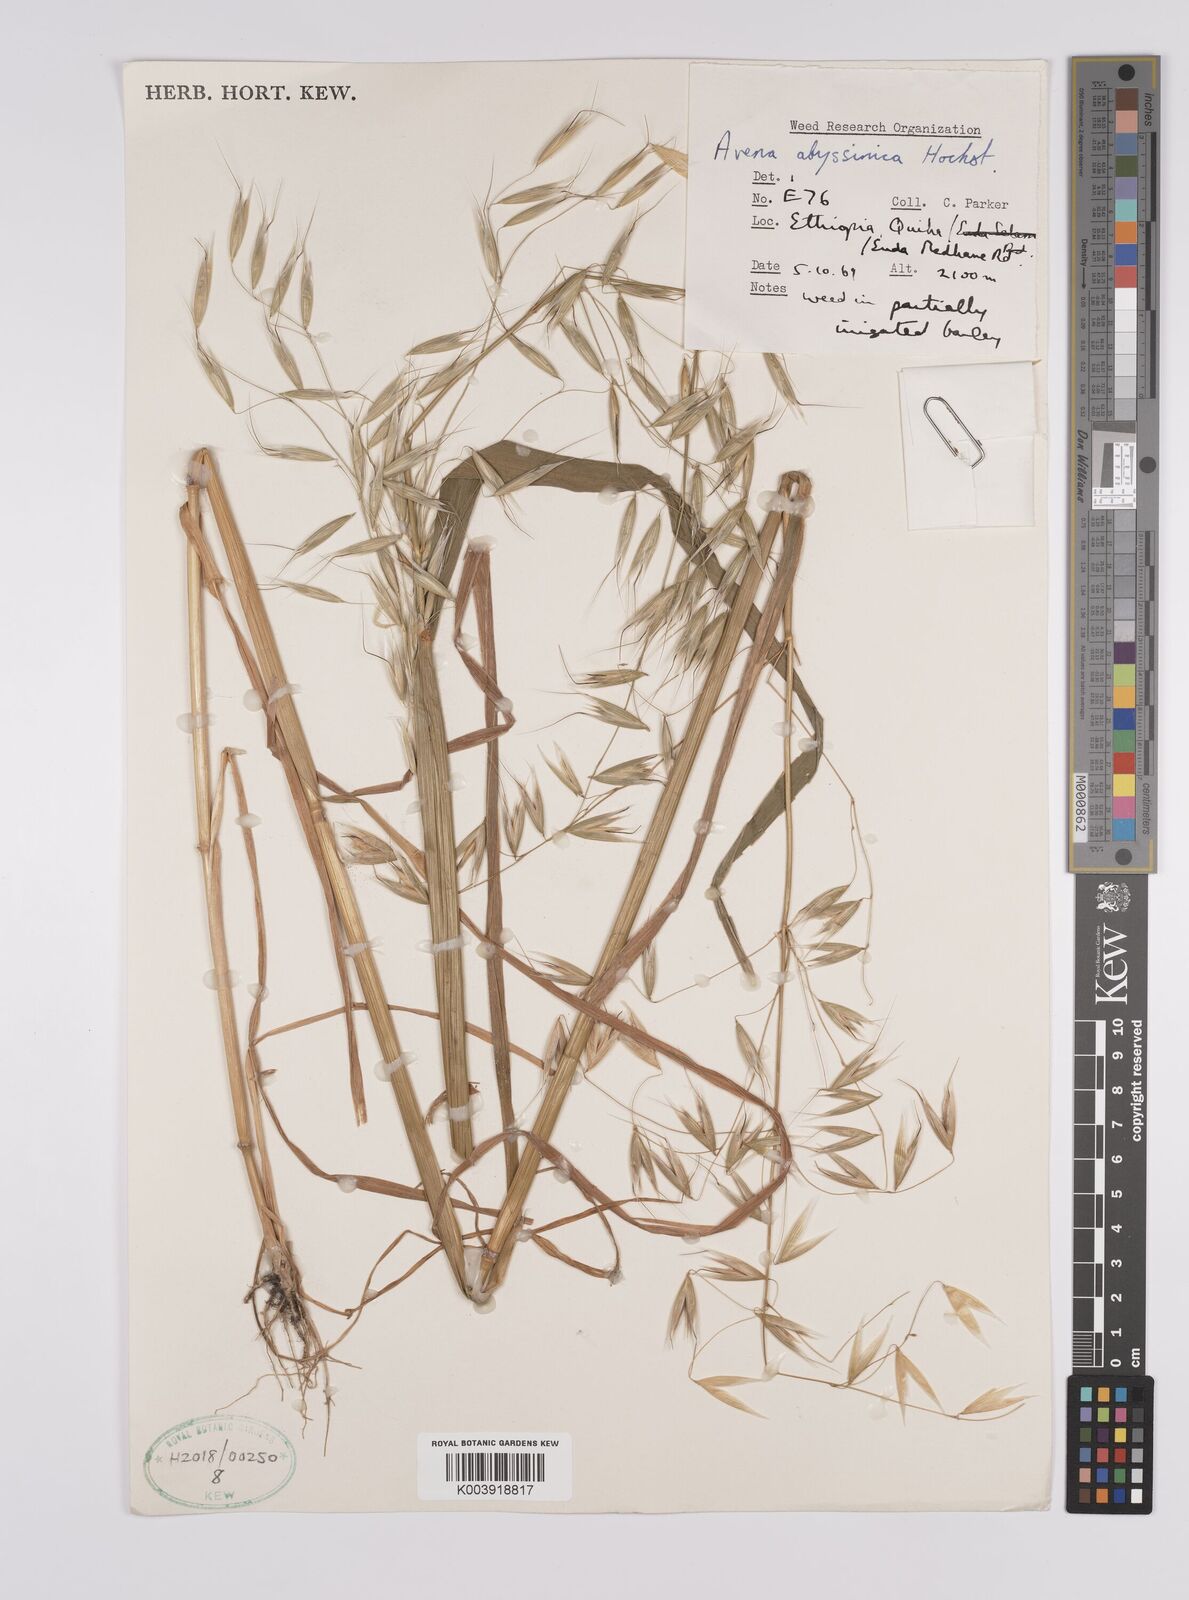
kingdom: Plantae
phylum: Tracheophyta
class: Liliopsida
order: Poales
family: Poaceae
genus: Avena
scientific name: Avena abyssinica
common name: Ethiopian oat
